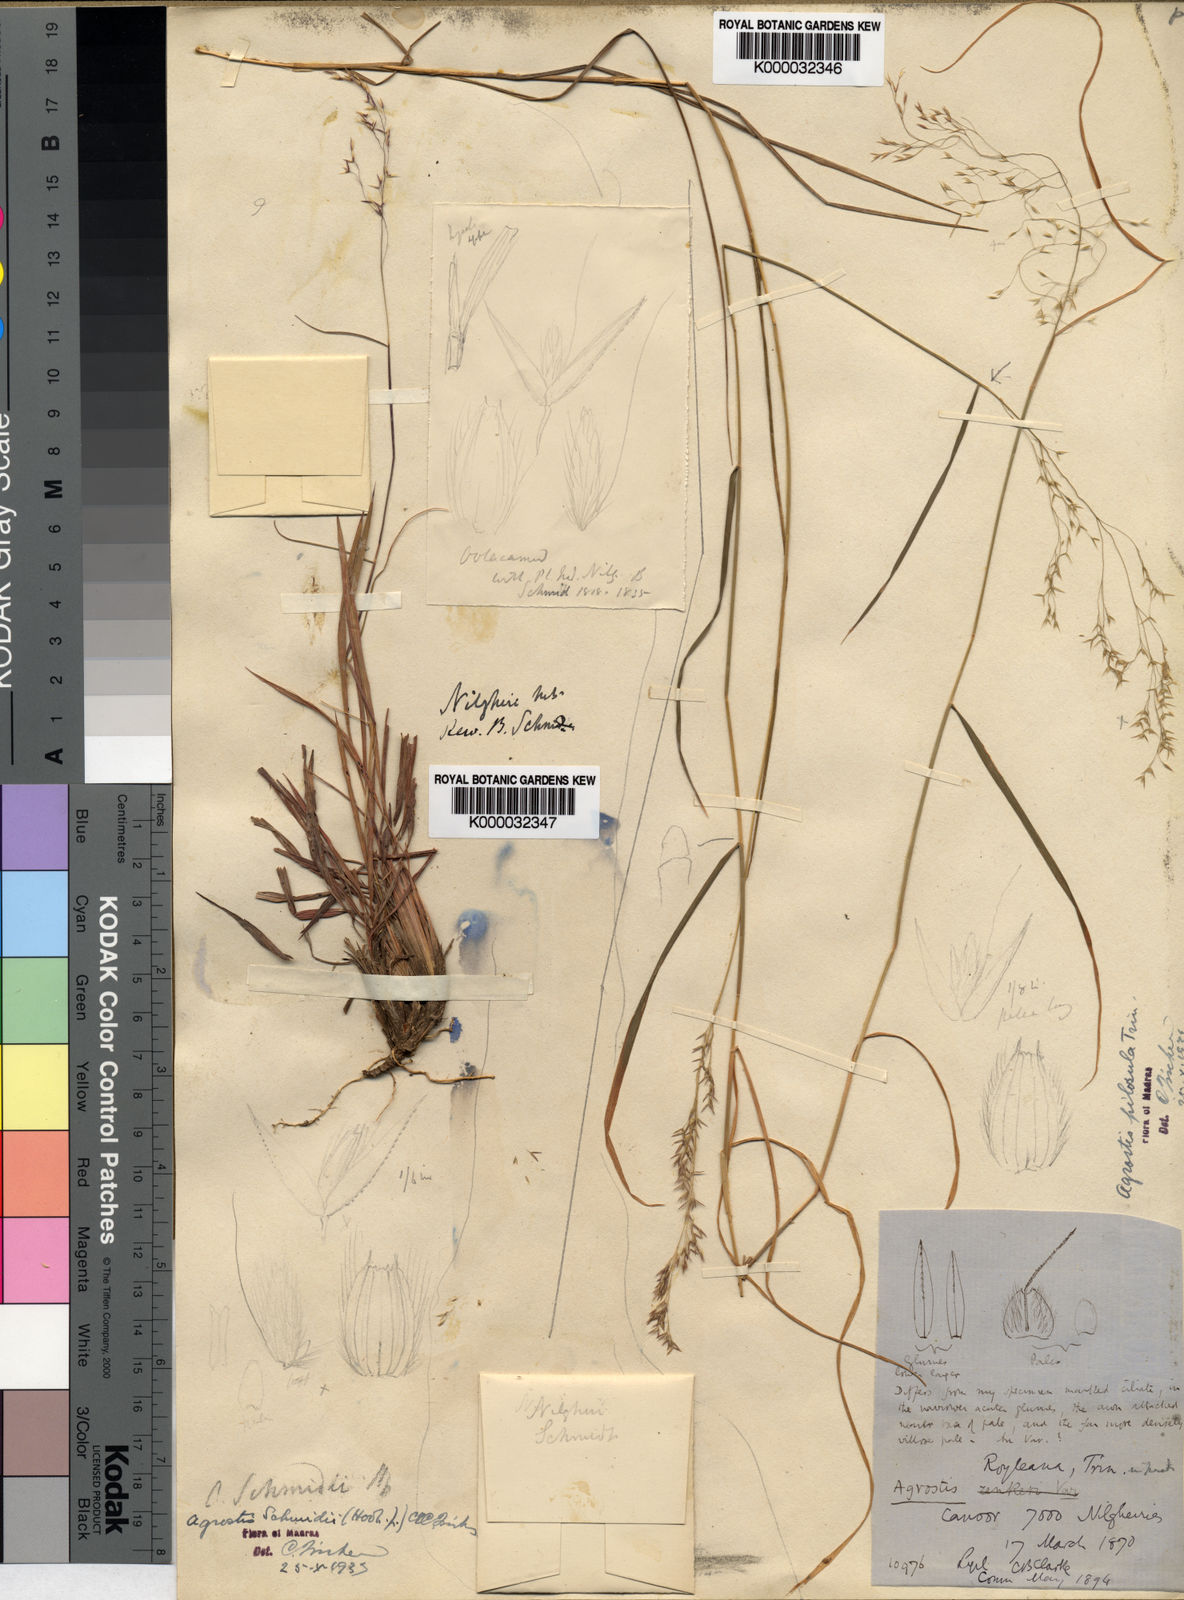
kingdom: Plantae
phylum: Tracheophyta
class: Liliopsida
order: Poales
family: Poaceae
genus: Agrostis
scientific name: Agrostis
